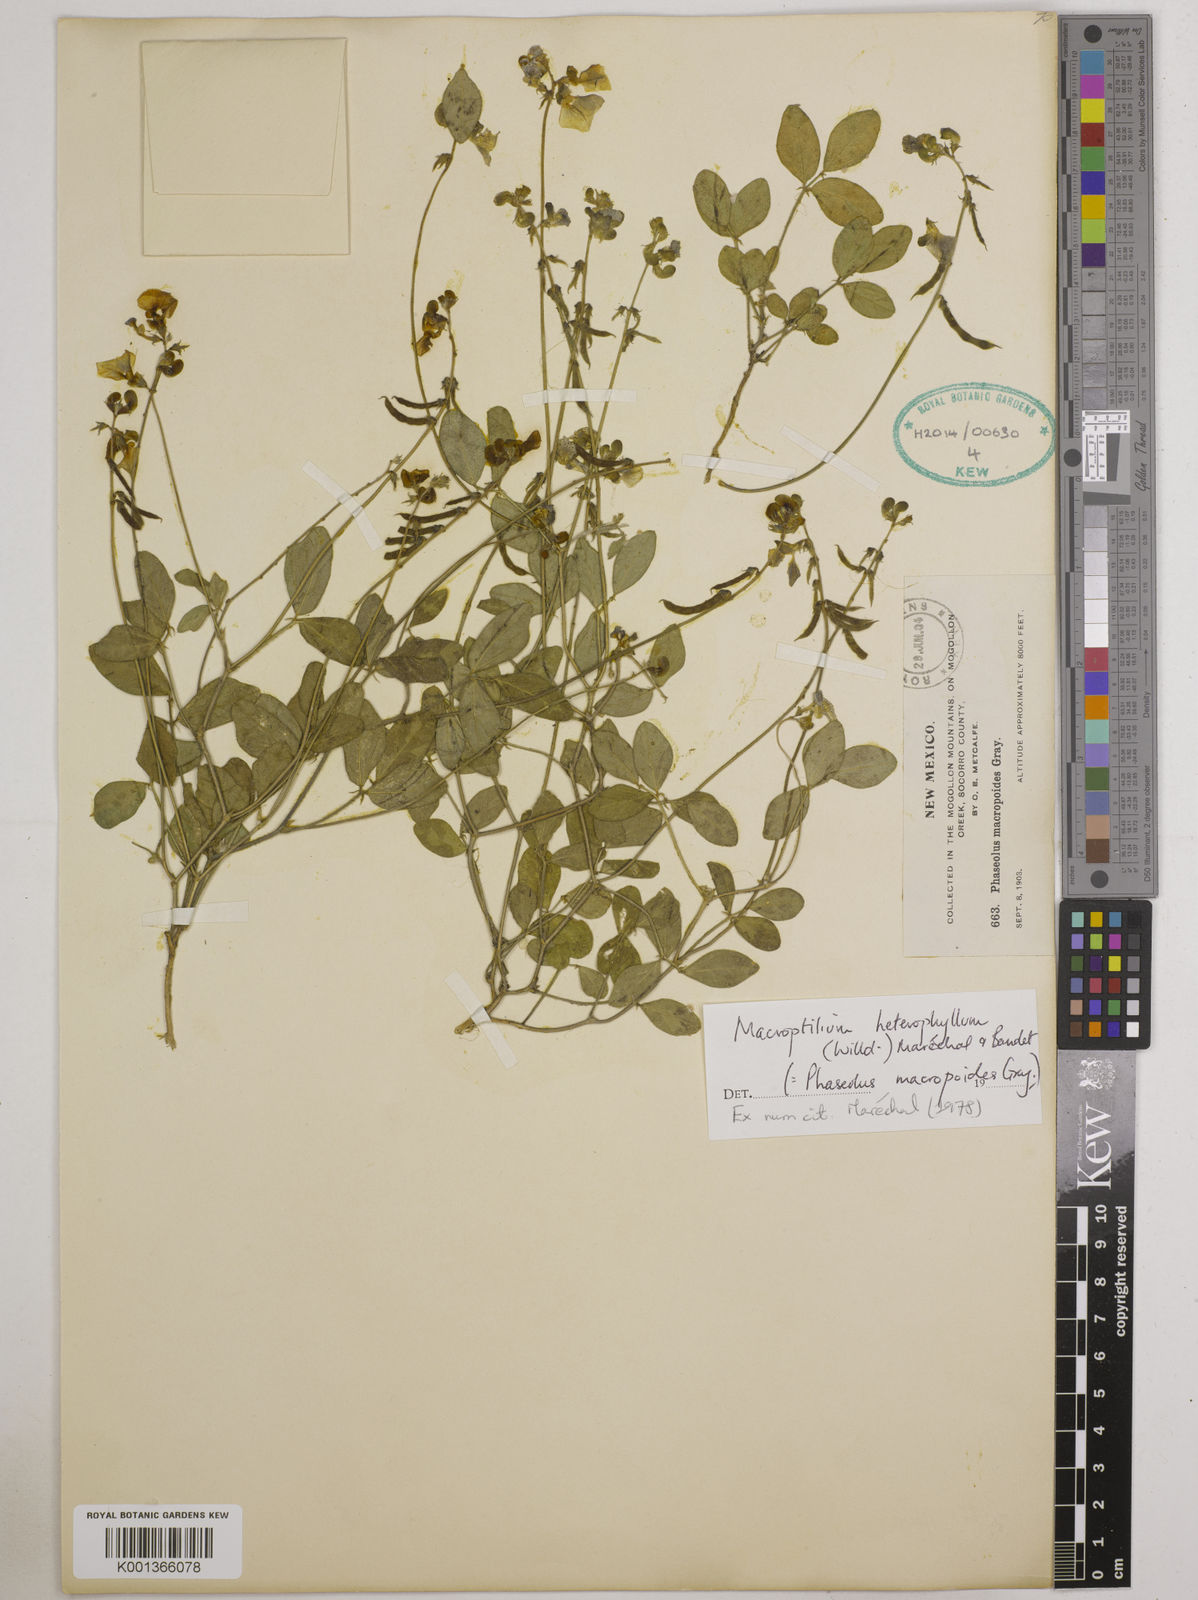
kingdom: Plantae
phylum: Tracheophyta
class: Magnoliopsida
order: Fabales
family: Fabaceae
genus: Macroptilium
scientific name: Macroptilium gibbosifolium
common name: Variableleaf bushbean
